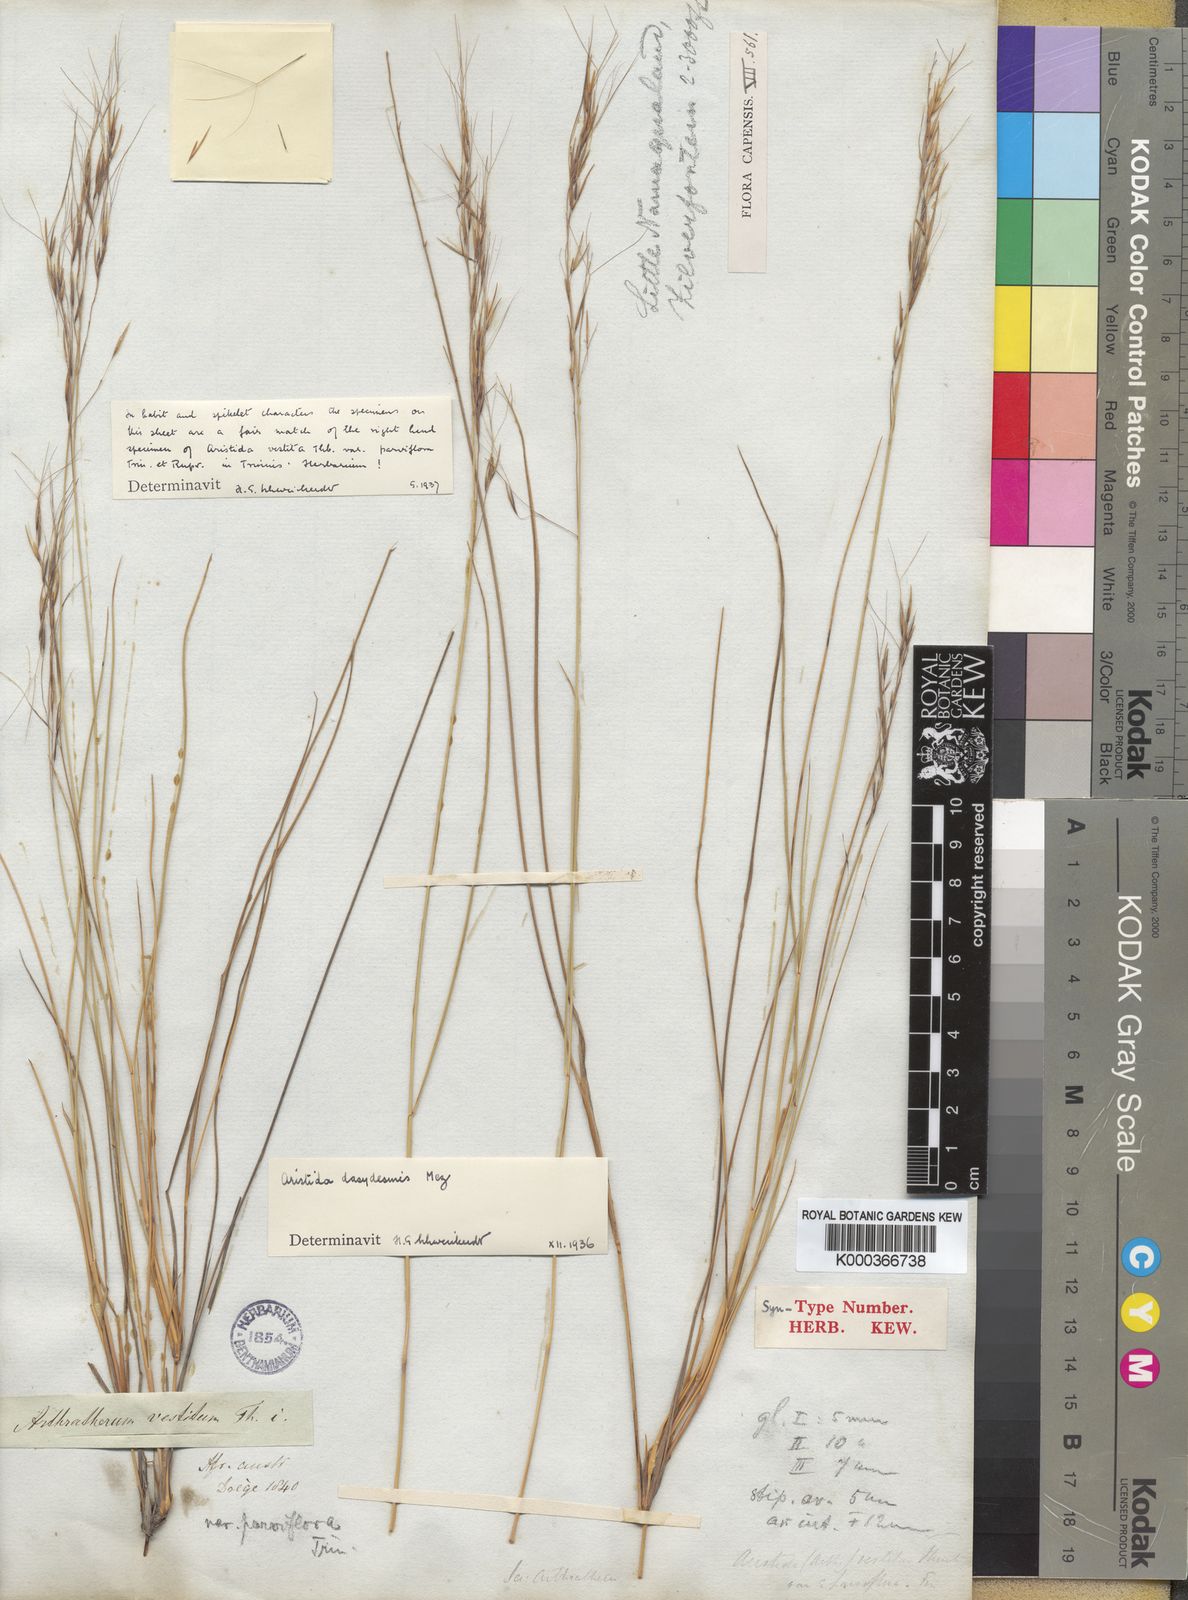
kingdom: Plantae
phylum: Tracheophyta
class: Liliopsida
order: Poales
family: Poaceae
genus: Aristida
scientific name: Aristida dasydesmis
